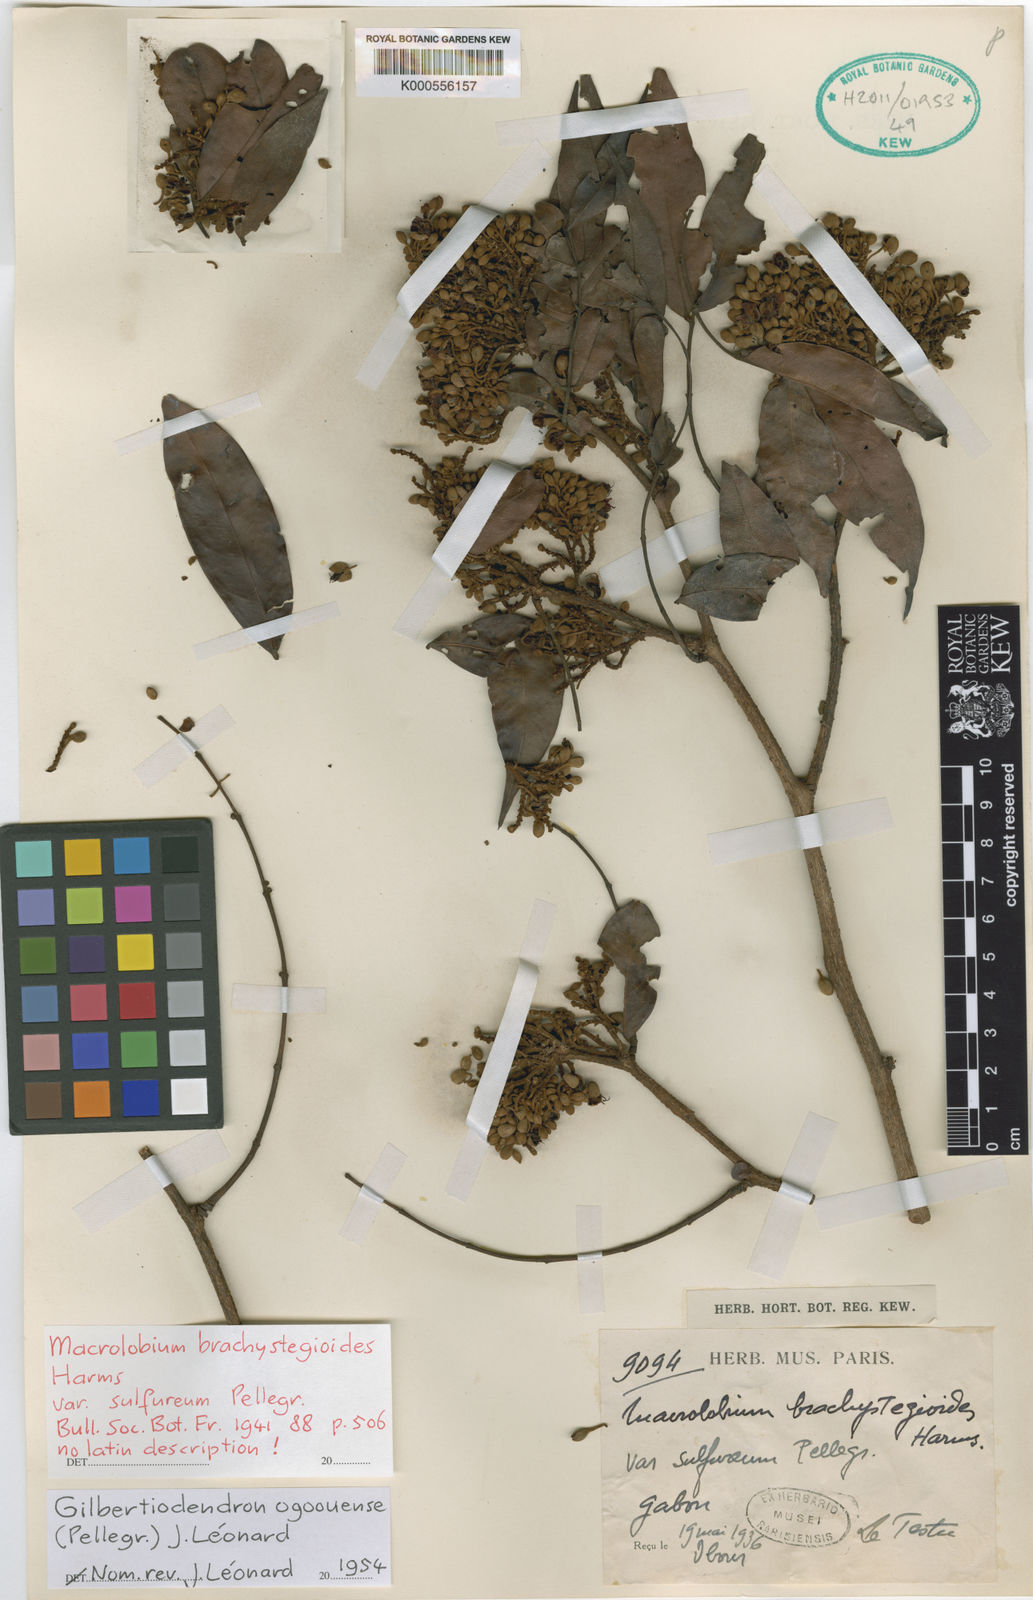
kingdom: Plantae
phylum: Tracheophyta
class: Magnoliopsida
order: Fabales
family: Fabaceae
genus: Gilbertiodendron
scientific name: Gilbertiodendron ogoouense
